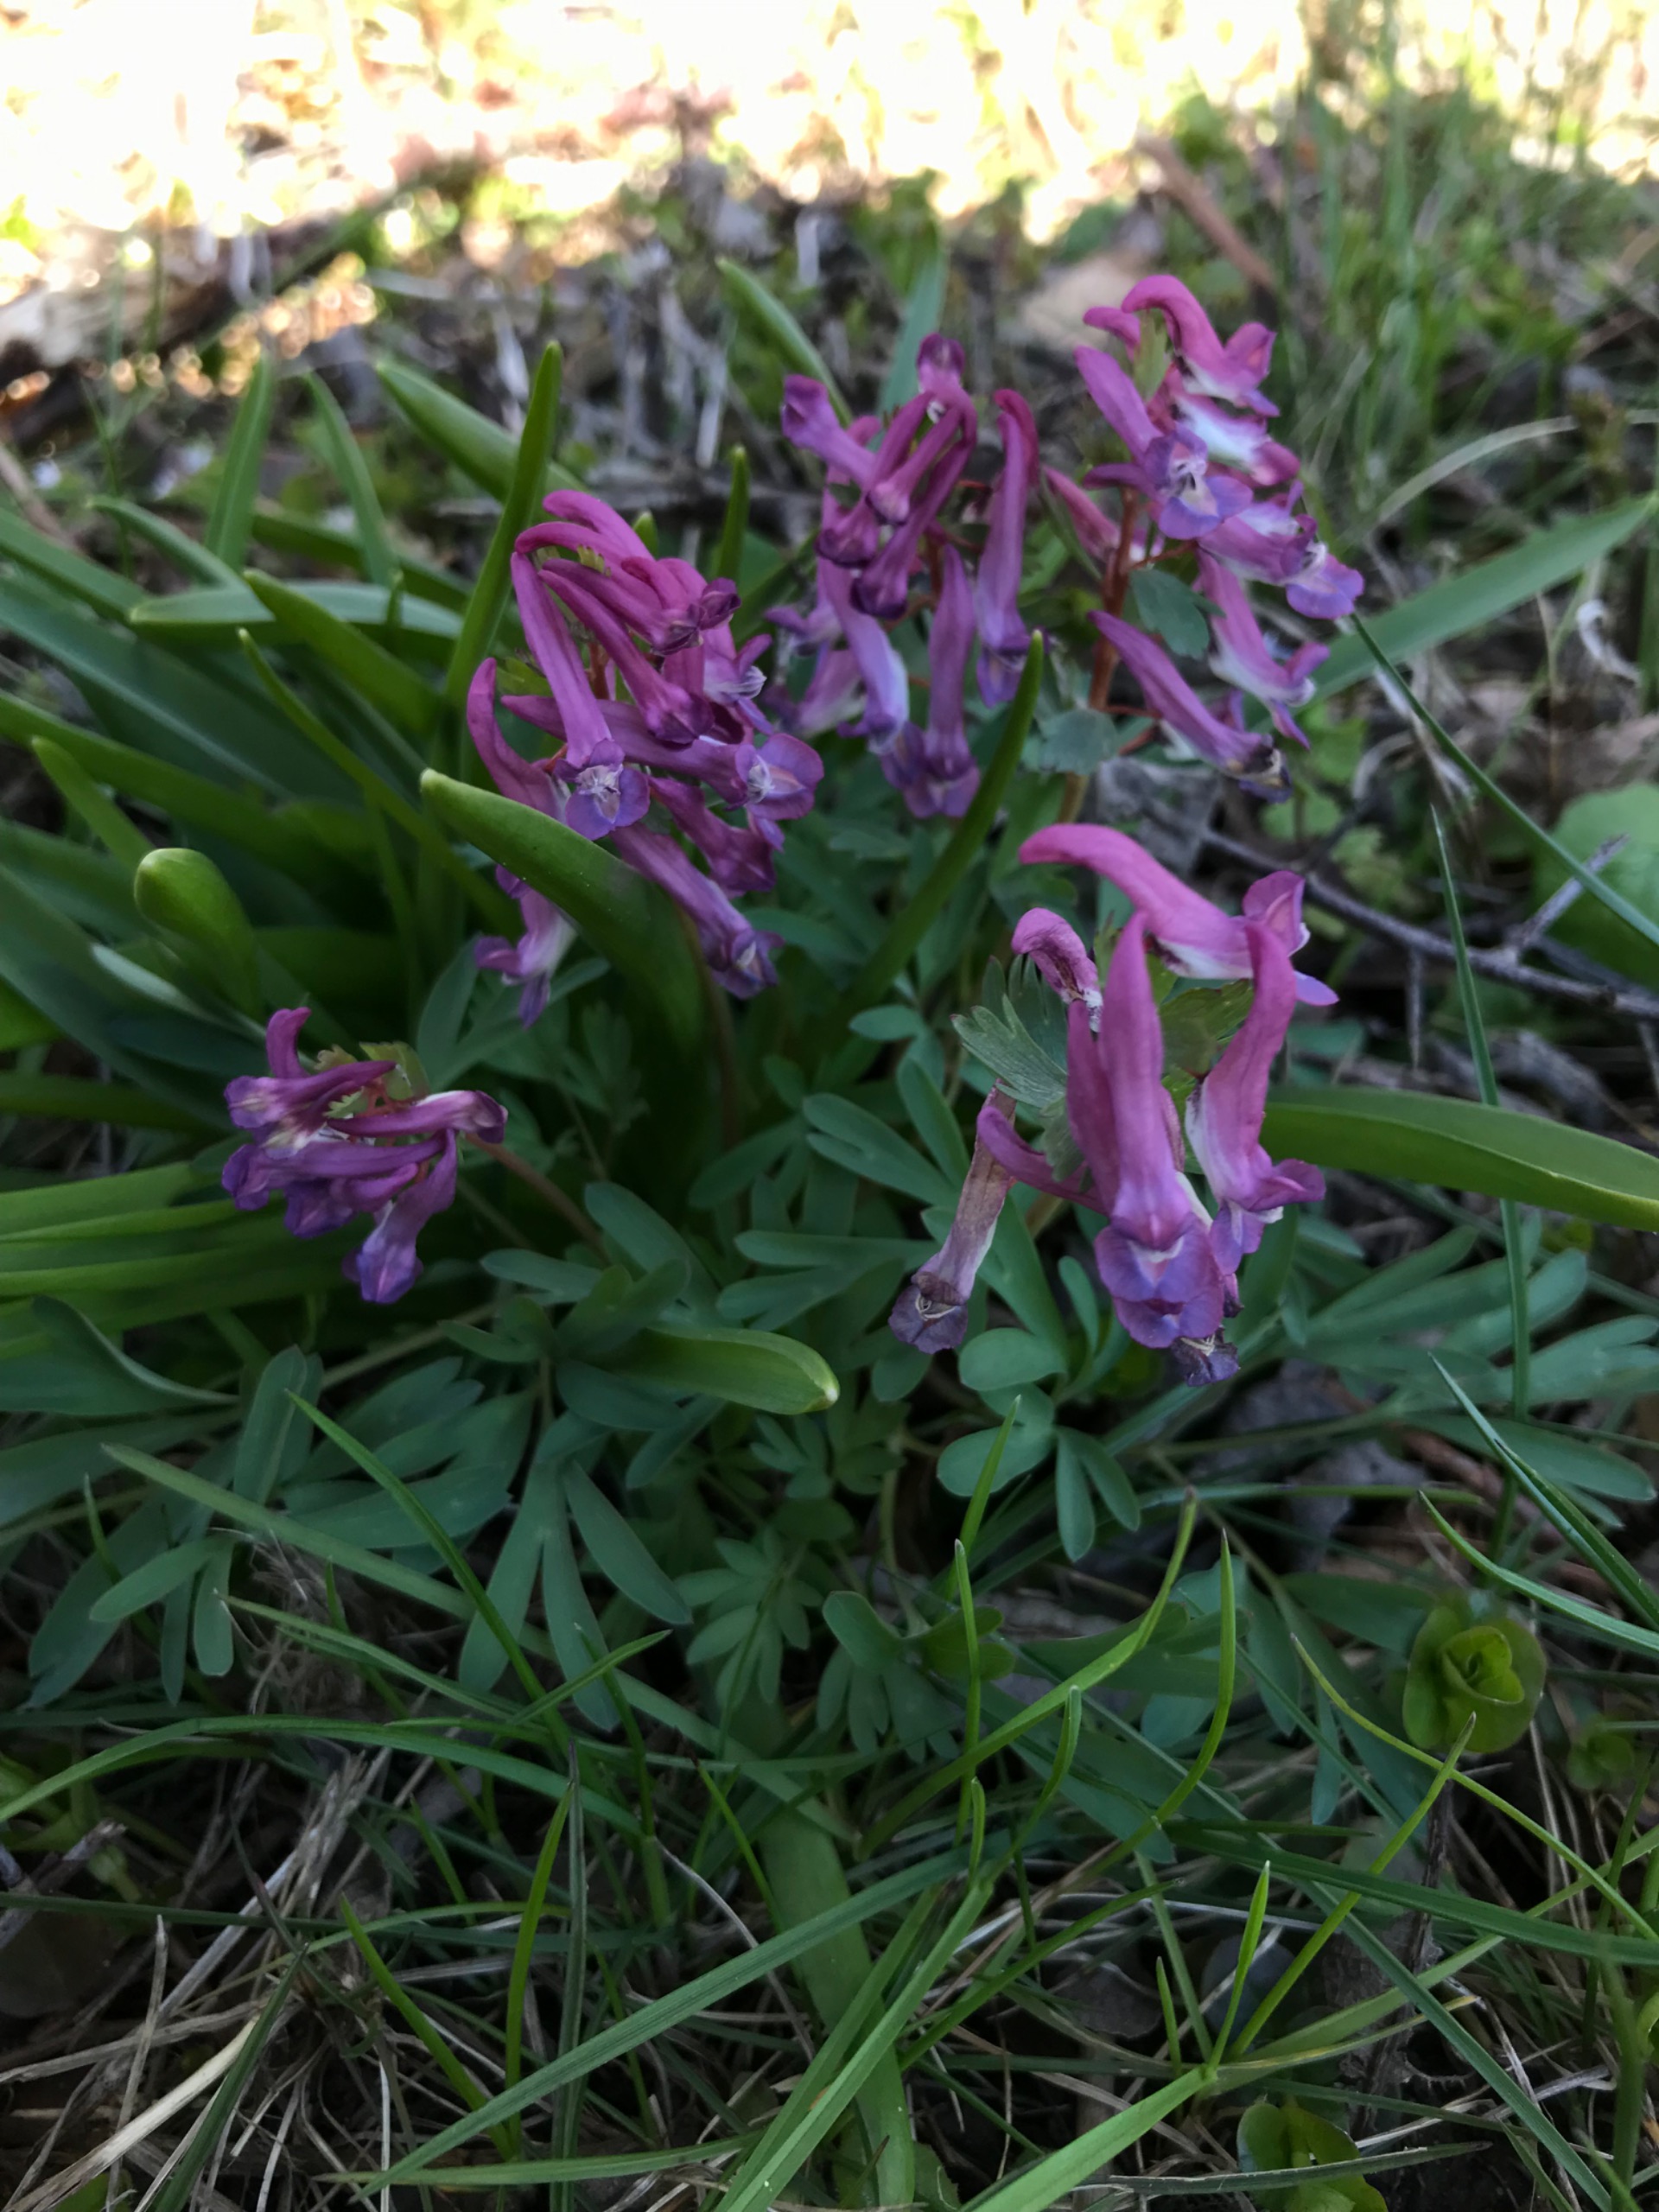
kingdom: Plantae
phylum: Tracheophyta
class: Magnoliopsida
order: Ranunculales
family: Papaveraceae
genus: Corydalis
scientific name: Corydalis solida
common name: Langstilket lærkespore
